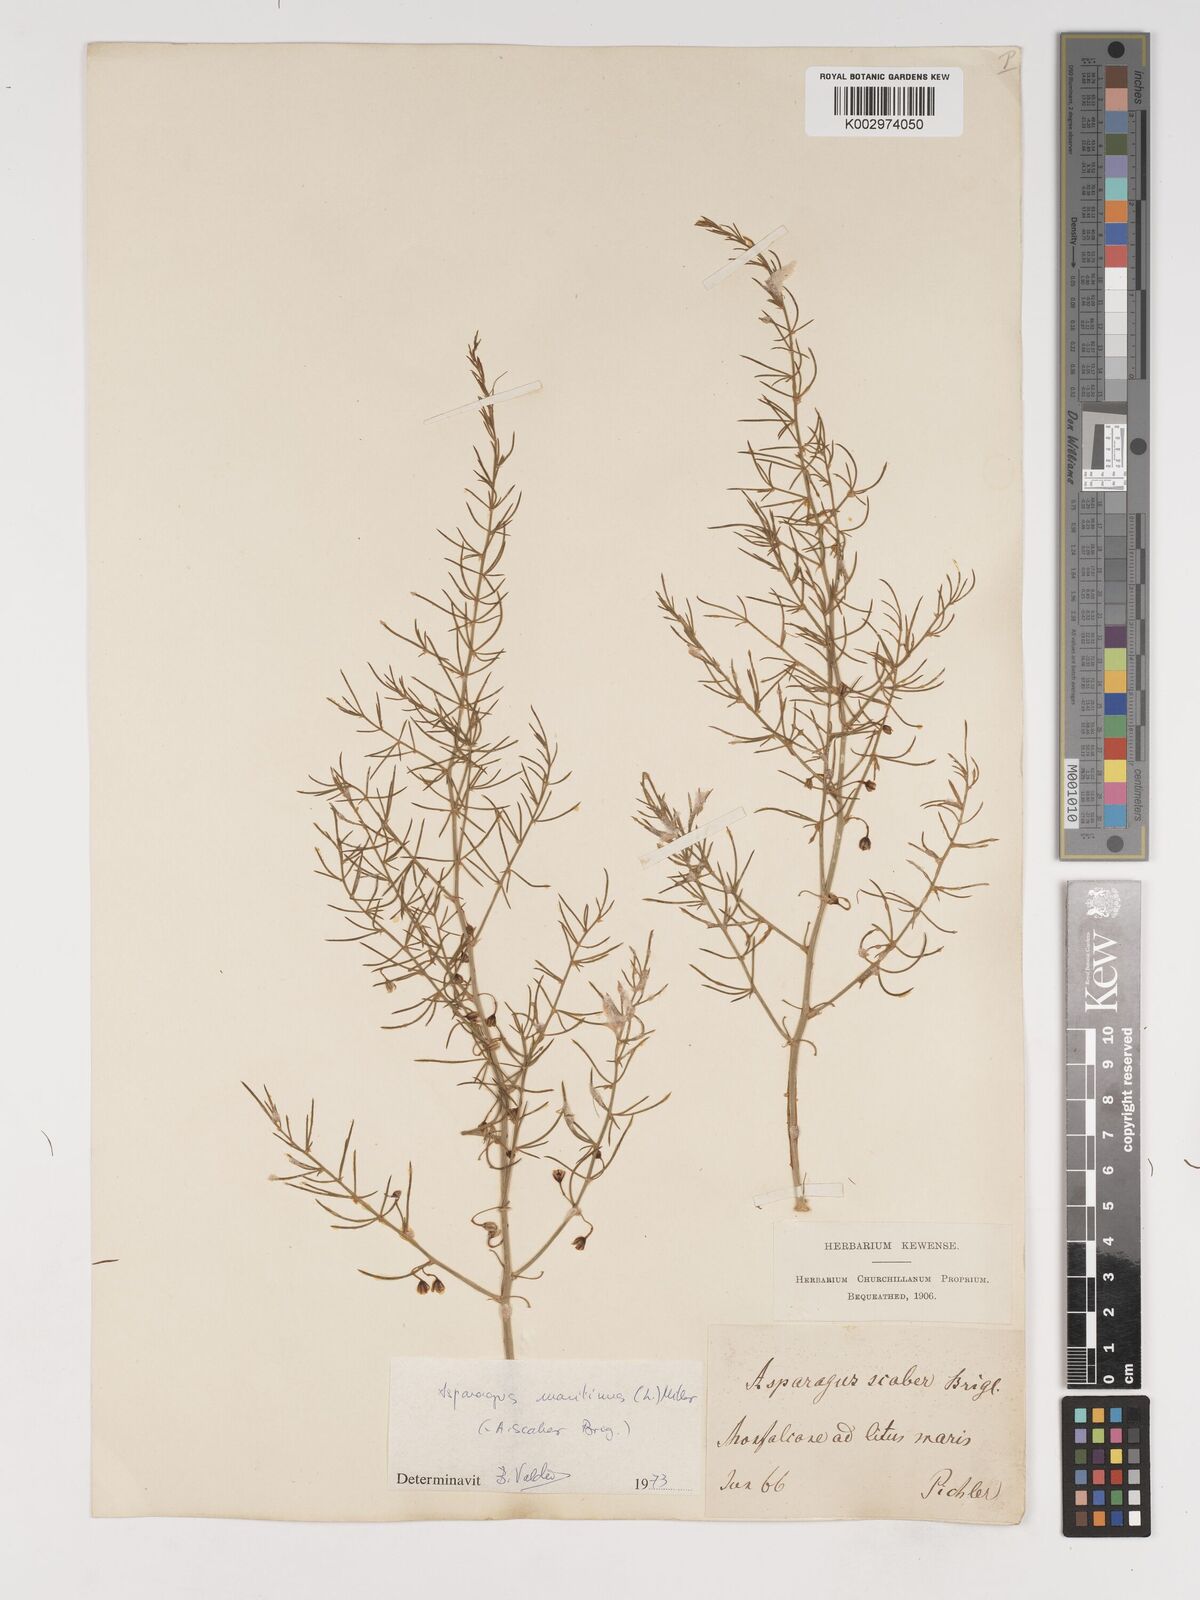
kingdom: Plantae
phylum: Tracheophyta
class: Liliopsida
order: Asparagales
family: Asparagaceae
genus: Asparagus
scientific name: Asparagus maritimus
